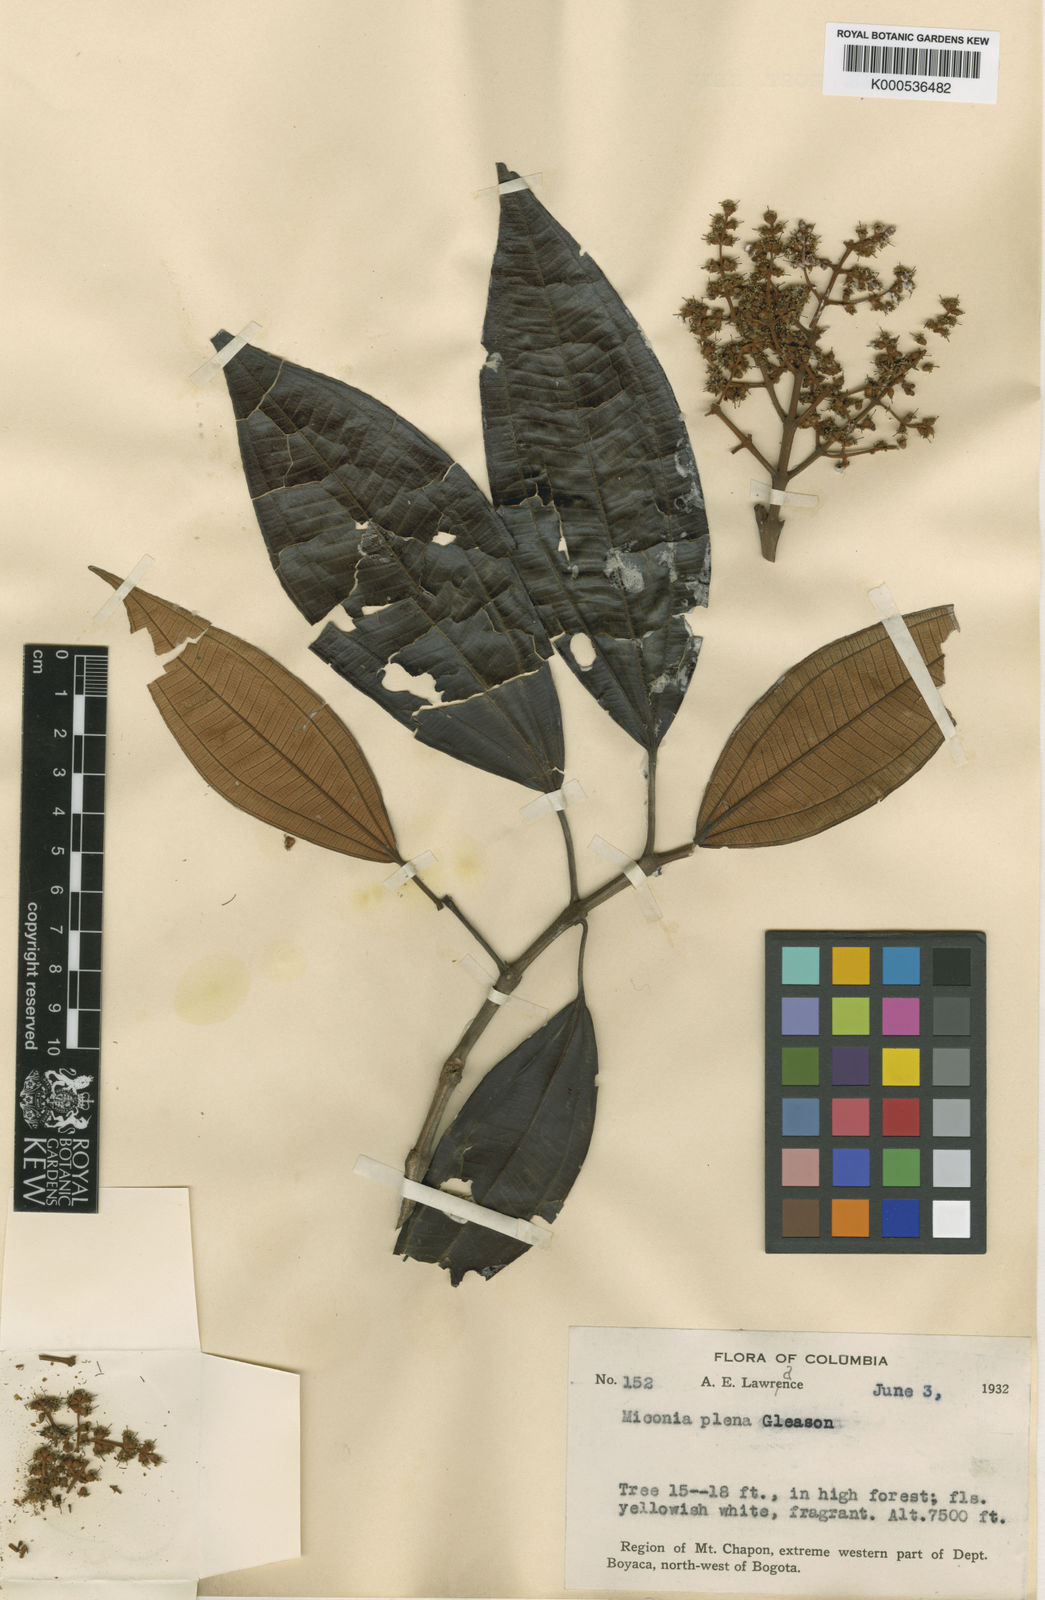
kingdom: Plantae
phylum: Tracheophyta
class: Magnoliopsida
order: Myrtales
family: Melastomataceae
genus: Miconia
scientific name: Miconia plena
